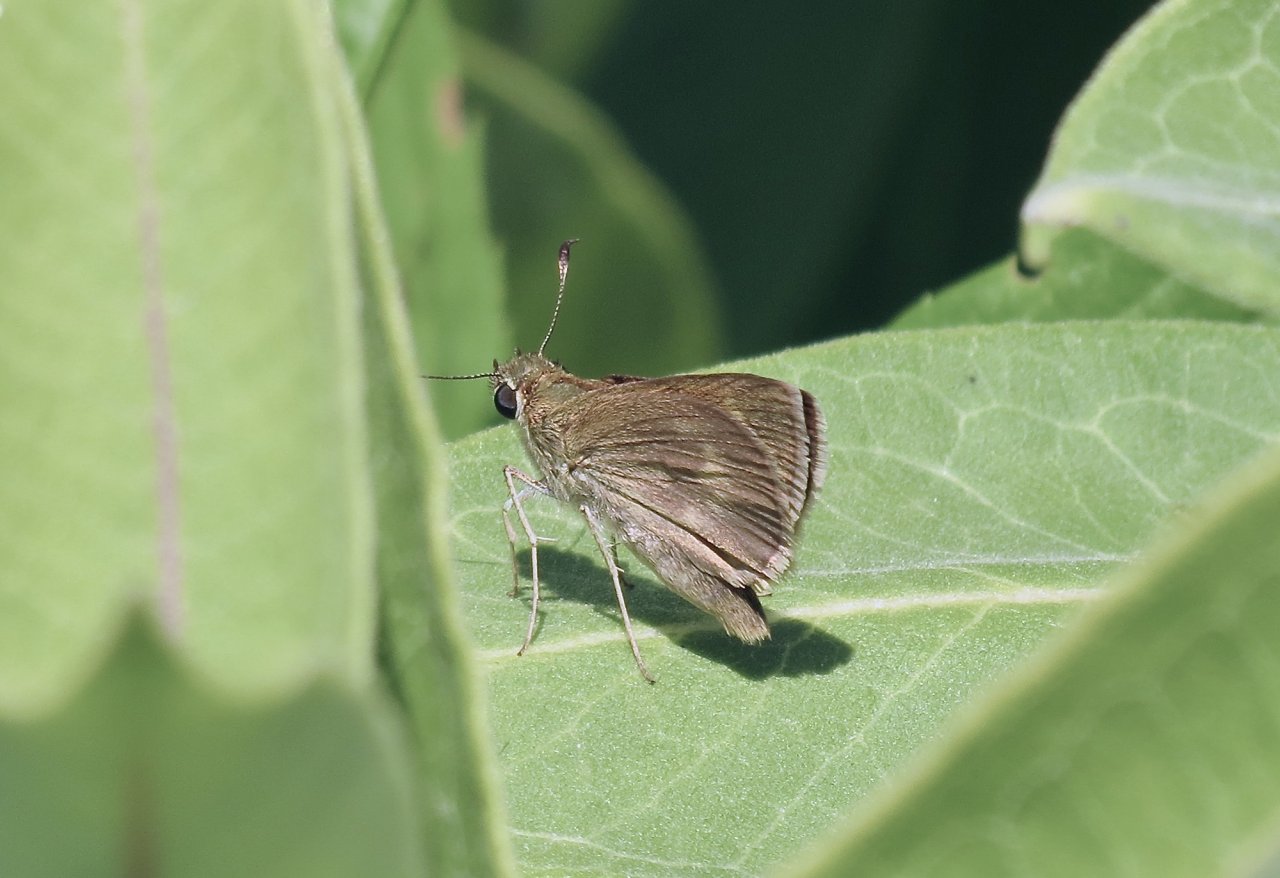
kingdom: Animalia
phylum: Arthropoda
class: Insecta
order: Lepidoptera
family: Hesperiidae
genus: Euphyes
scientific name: Euphyes vestris
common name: Dun Skipper
